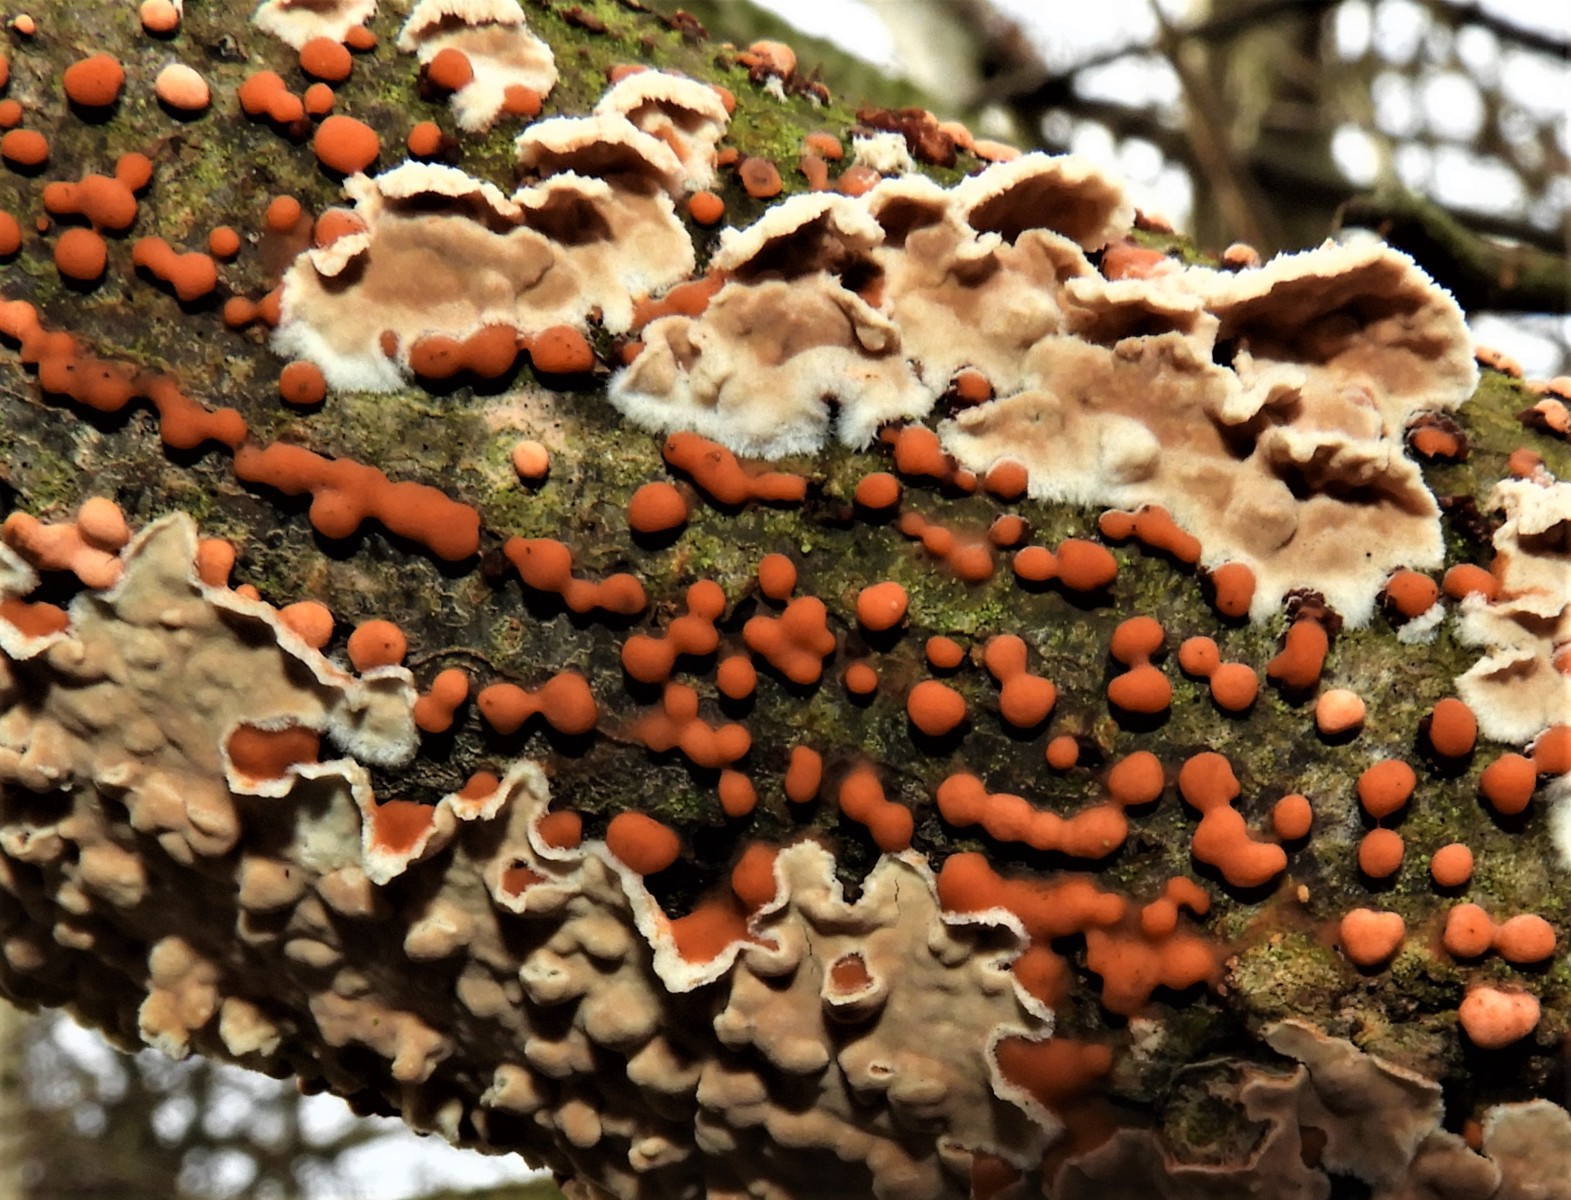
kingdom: Fungi
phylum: Basidiomycota
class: Agaricomycetes
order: Agaricales
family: Physalacriaceae
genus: Cylindrobasidium
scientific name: Cylindrobasidium evolvens
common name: sprækkehinde
